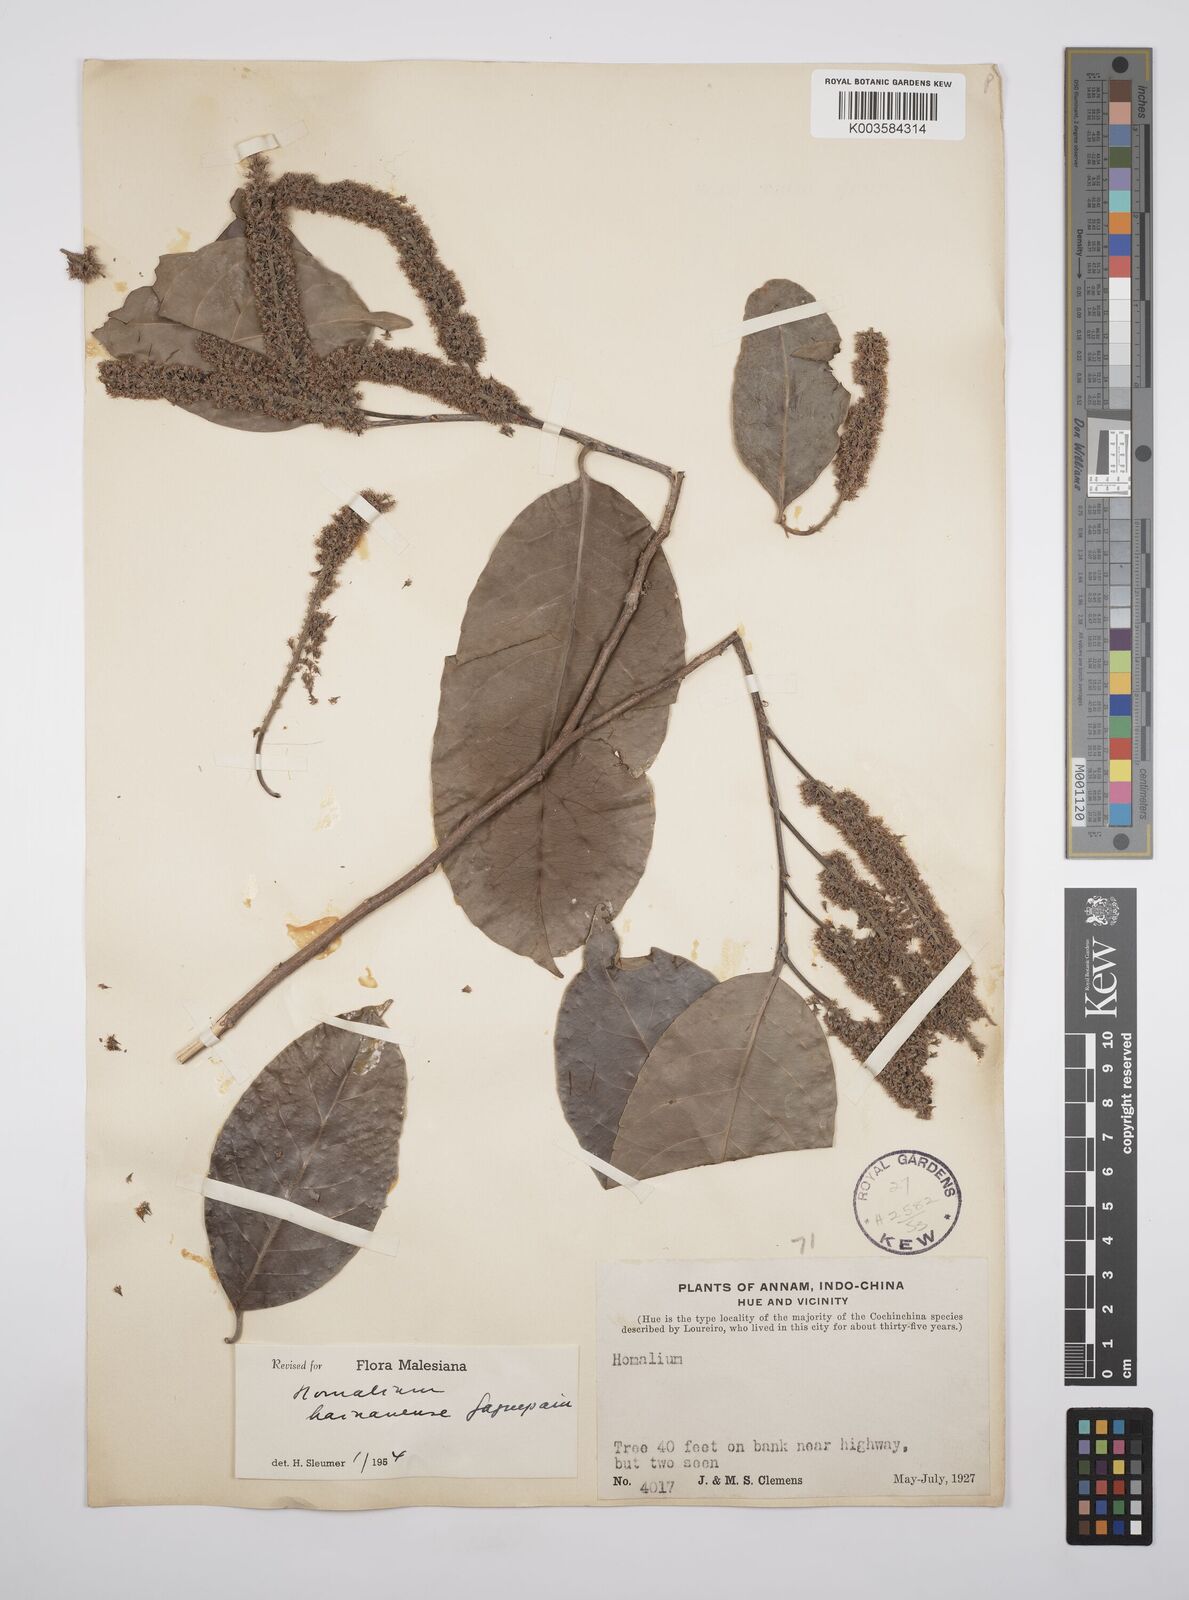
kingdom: Plantae
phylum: Tracheophyta
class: Magnoliopsida
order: Malpighiales
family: Salicaceae
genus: Homalium
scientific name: Homalium ceylanicum
